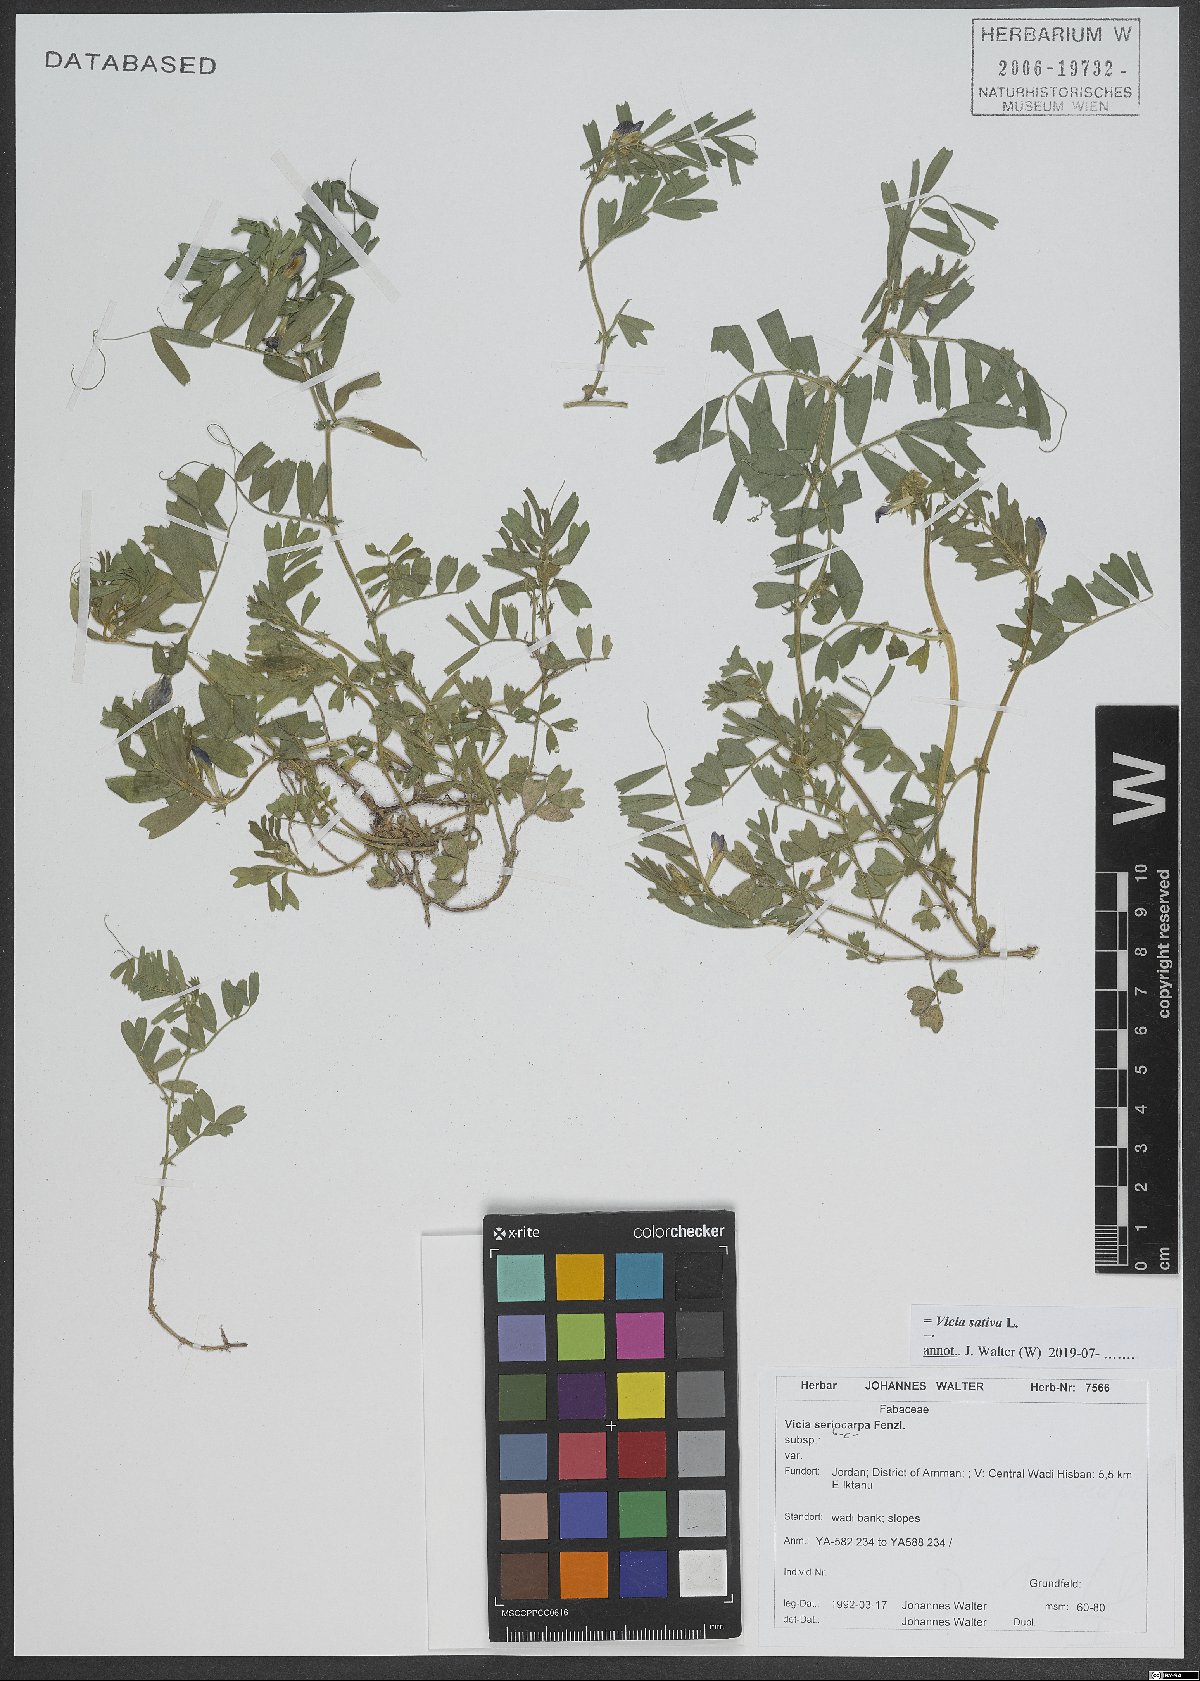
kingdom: Plantae
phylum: Tracheophyta
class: Magnoliopsida
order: Fabales
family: Fabaceae
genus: Vicia
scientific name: Vicia sativa
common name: Garden vetch
